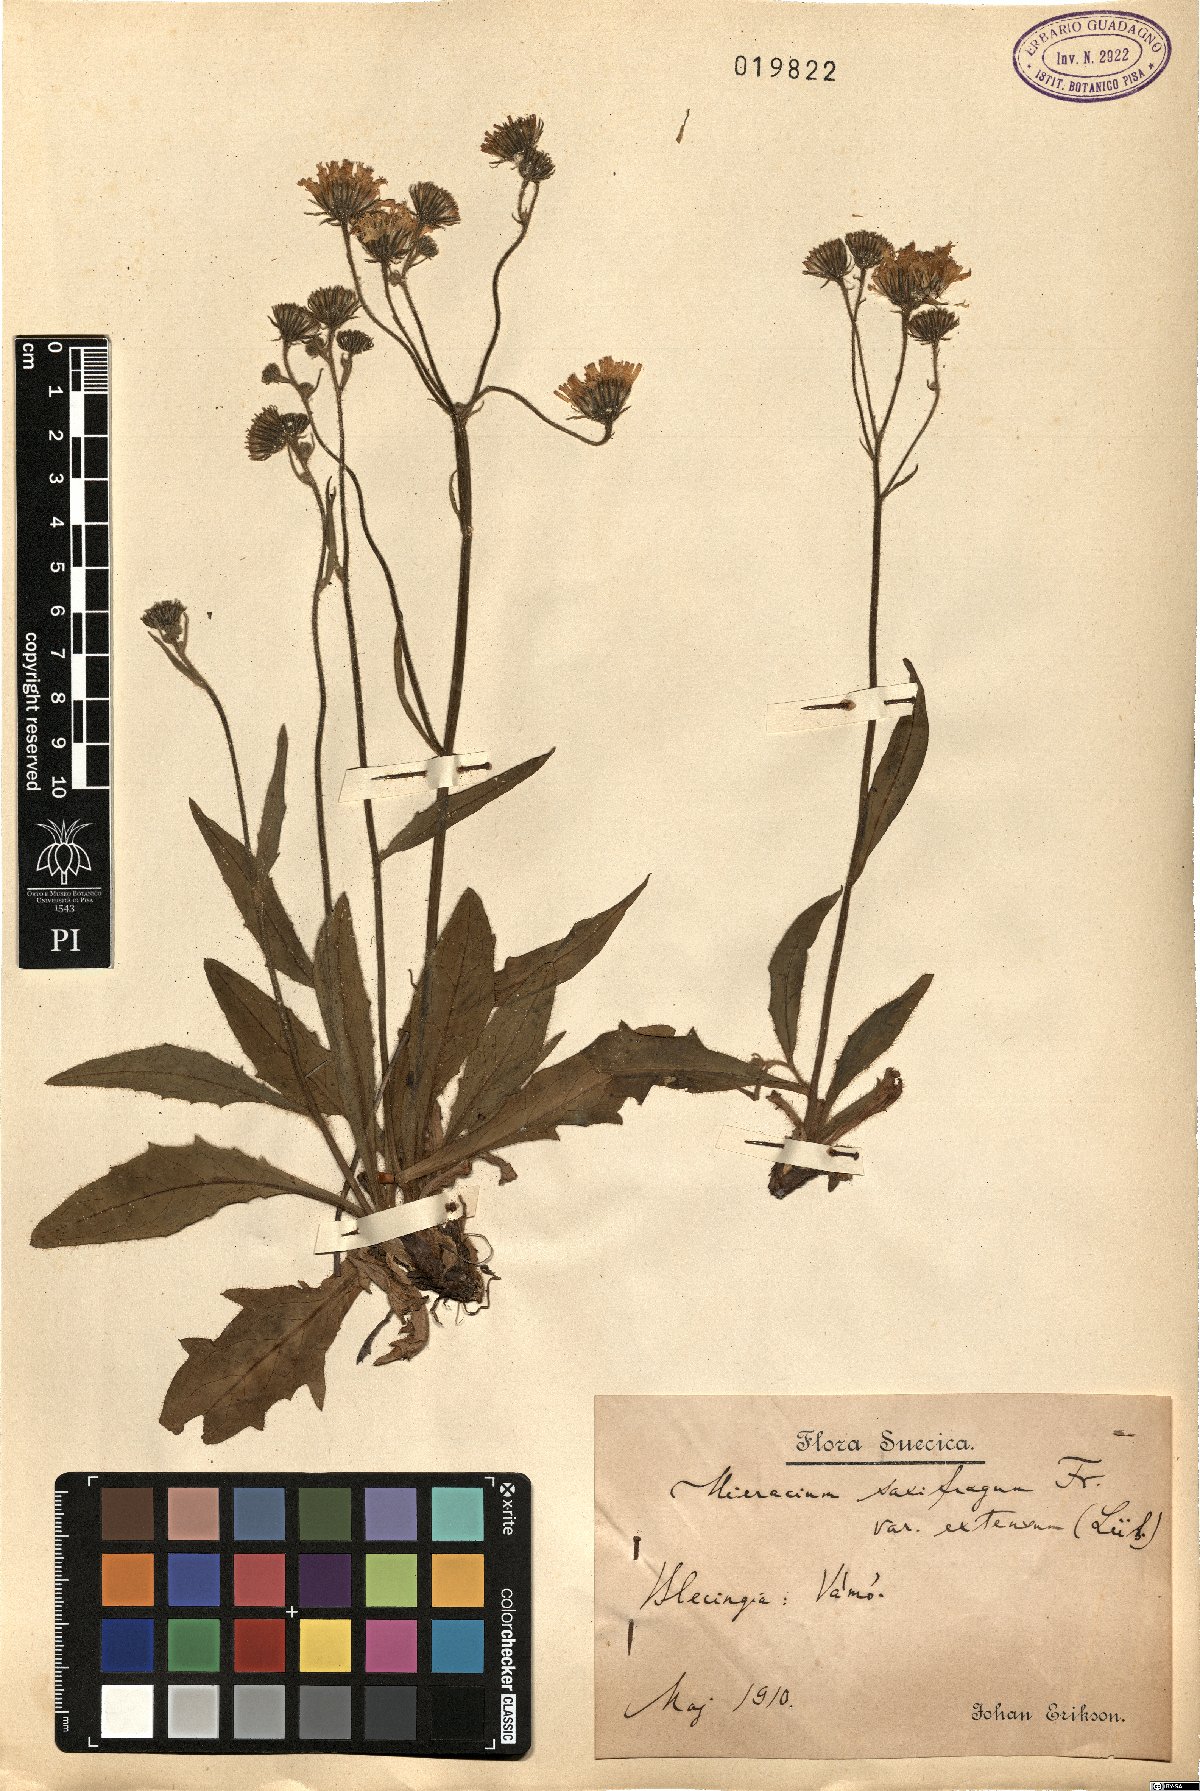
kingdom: Plantae
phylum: Tracheophyta
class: Magnoliopsida
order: Asterales
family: Asteraceae
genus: Hieracium
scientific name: Hieracium extensum
